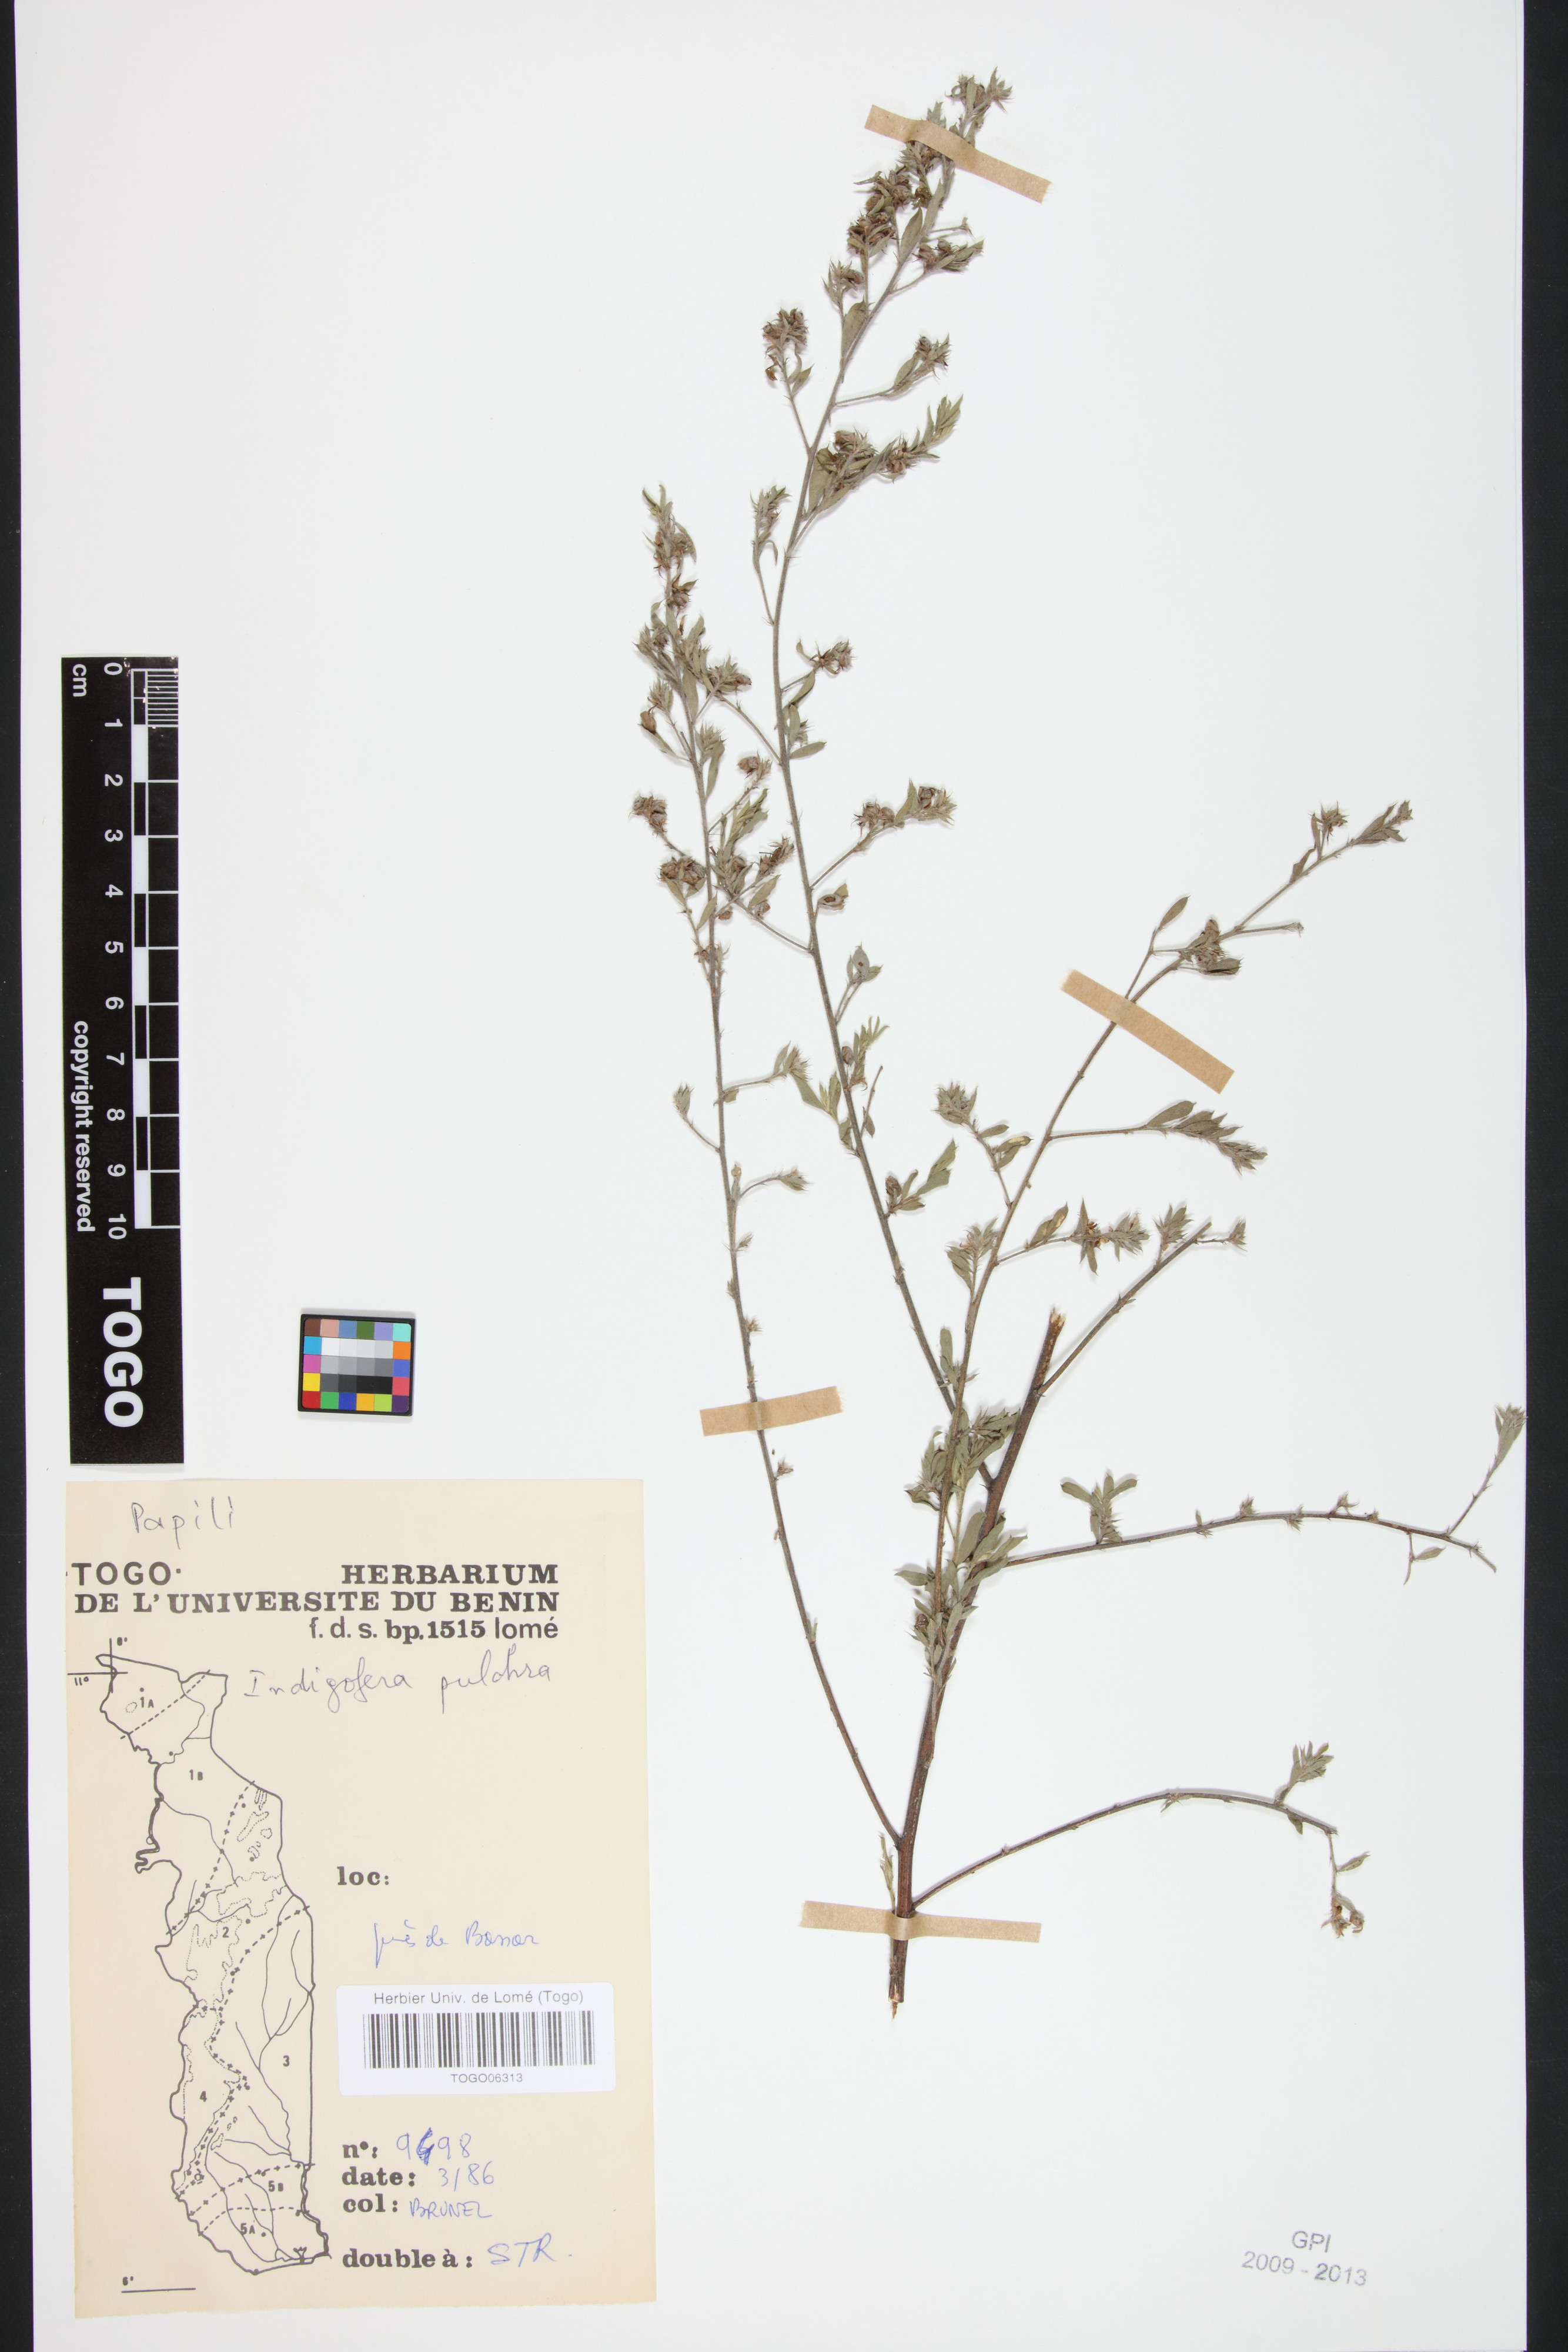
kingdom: Plantae
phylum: Tracheophyta
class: Magnoliopsida
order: Fabales
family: Fabaceae
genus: Indigofera
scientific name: Indigofera pulchra
